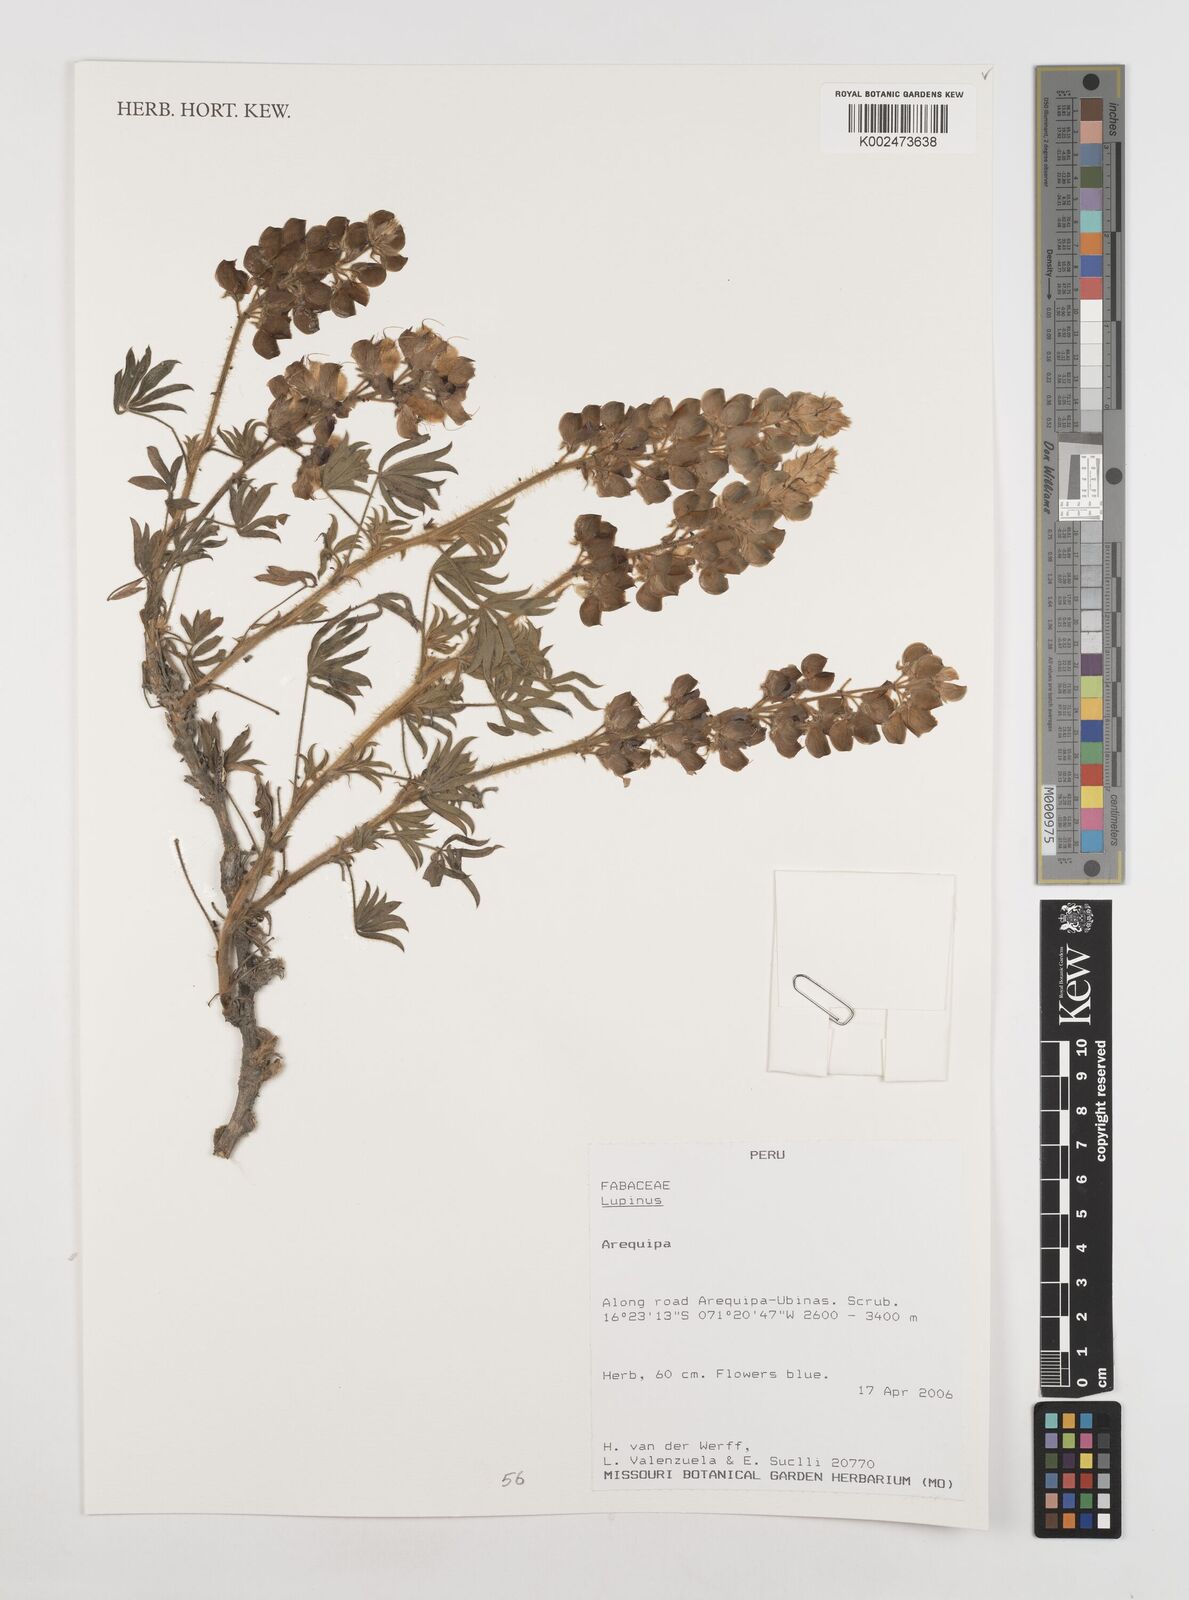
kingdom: Plantae
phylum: Tracheophyta
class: Magnoliopsida
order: Fabales
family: Fabaceae
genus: Lupinus
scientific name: Lupinus
